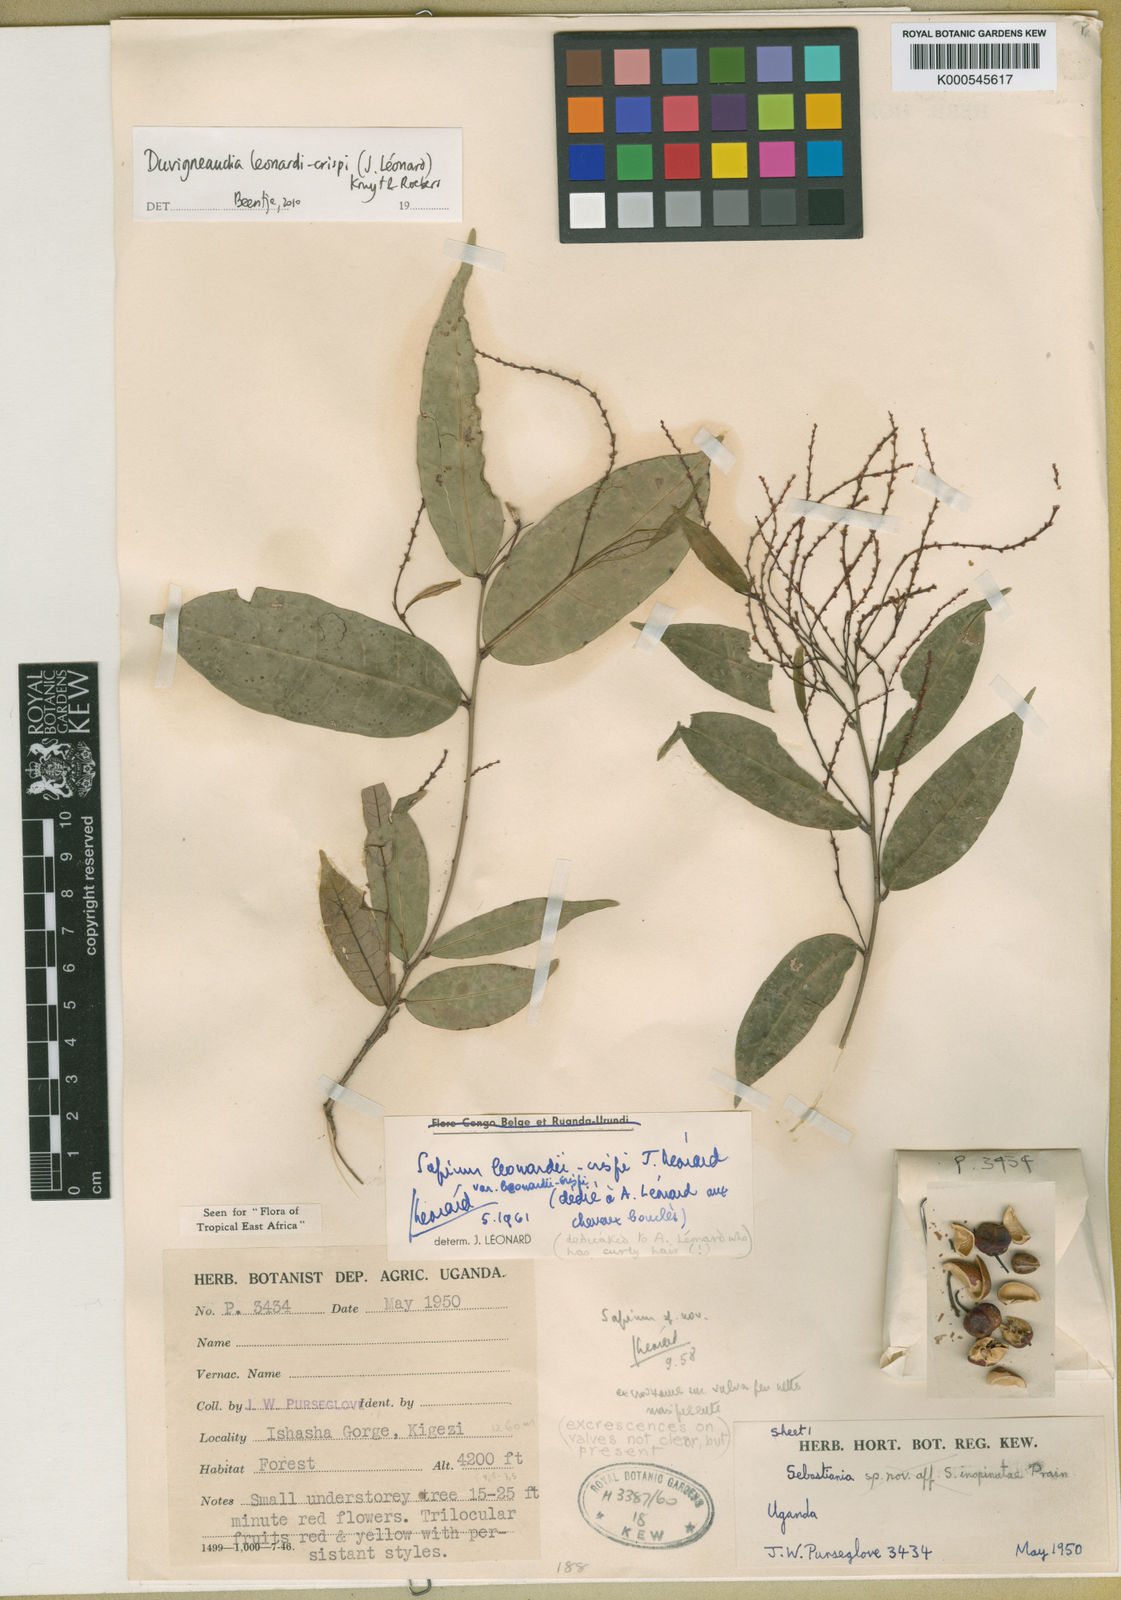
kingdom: Plantae
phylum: Tracheophyta
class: Magnoliopsida
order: Malpighiales
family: Euphorbiaceae
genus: Gymnanthes
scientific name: Gymnanthes
